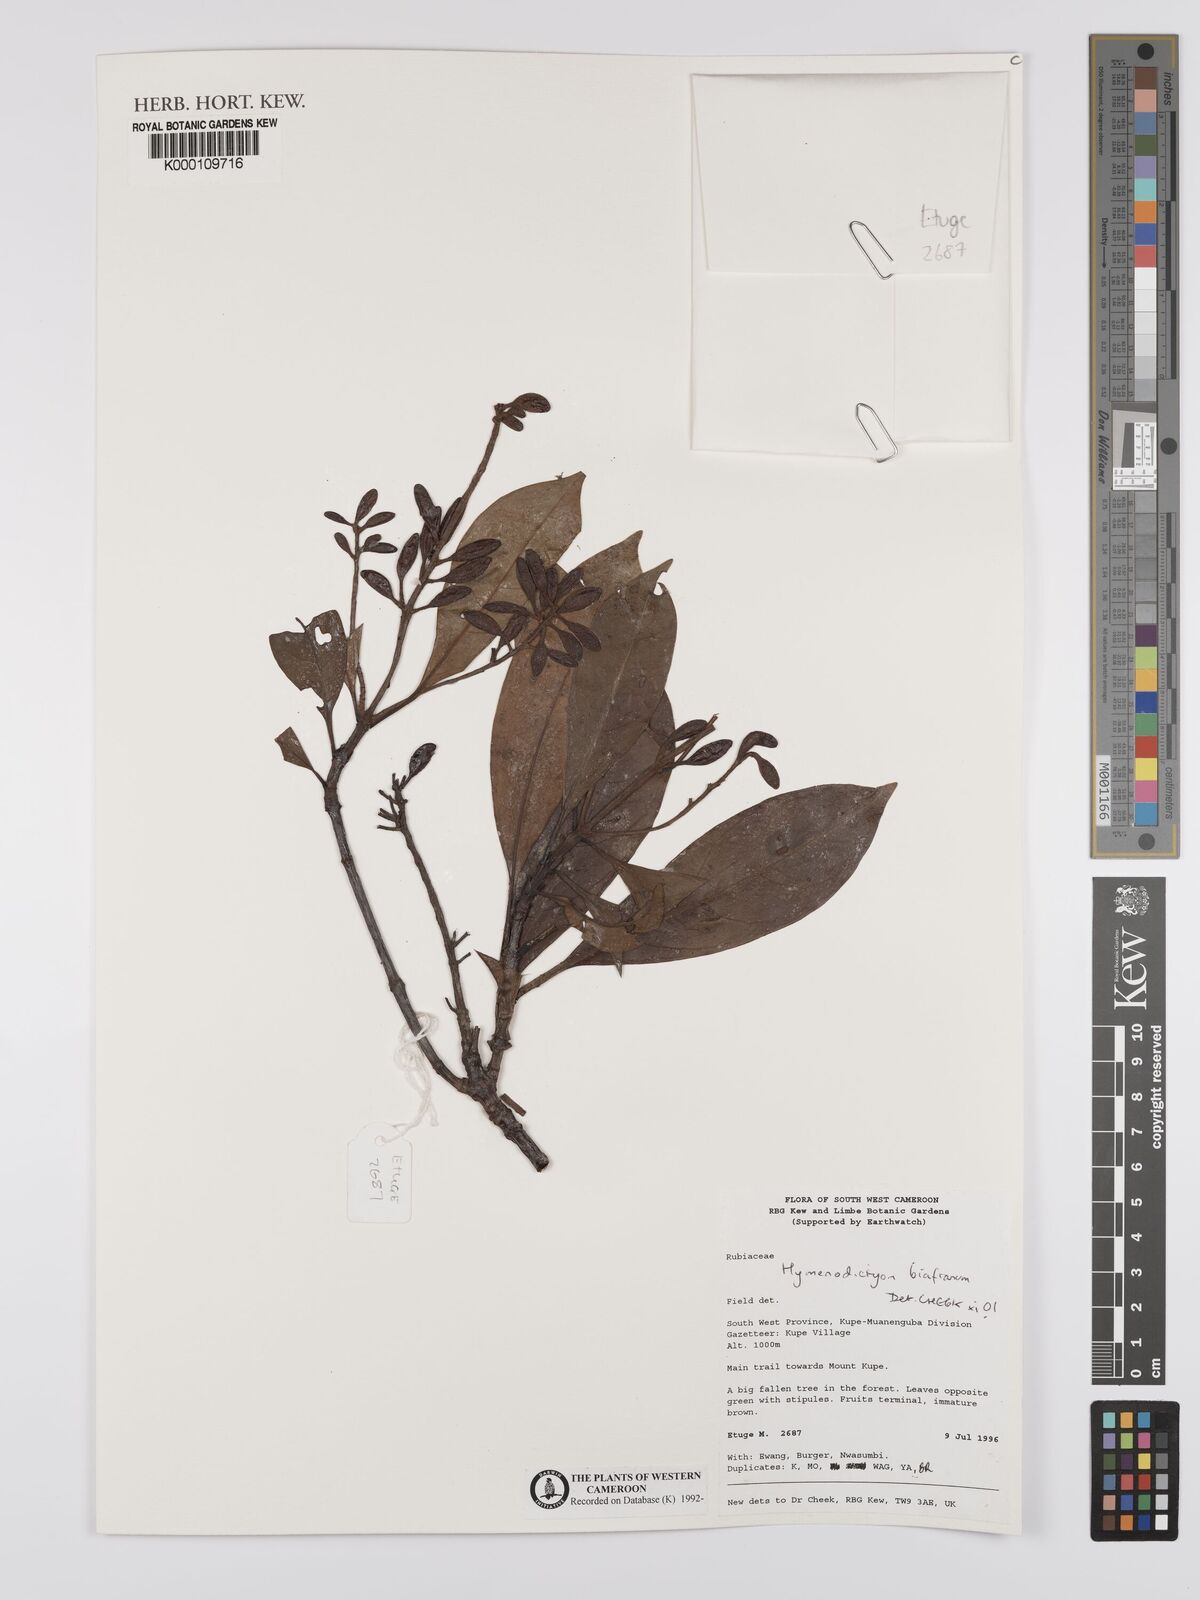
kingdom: Plantae
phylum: Tracheophyta
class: Magnoliopsida
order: Gentianales
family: Rubiaceae
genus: Hymenodictyon
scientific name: Hymenodictyon biafranum
